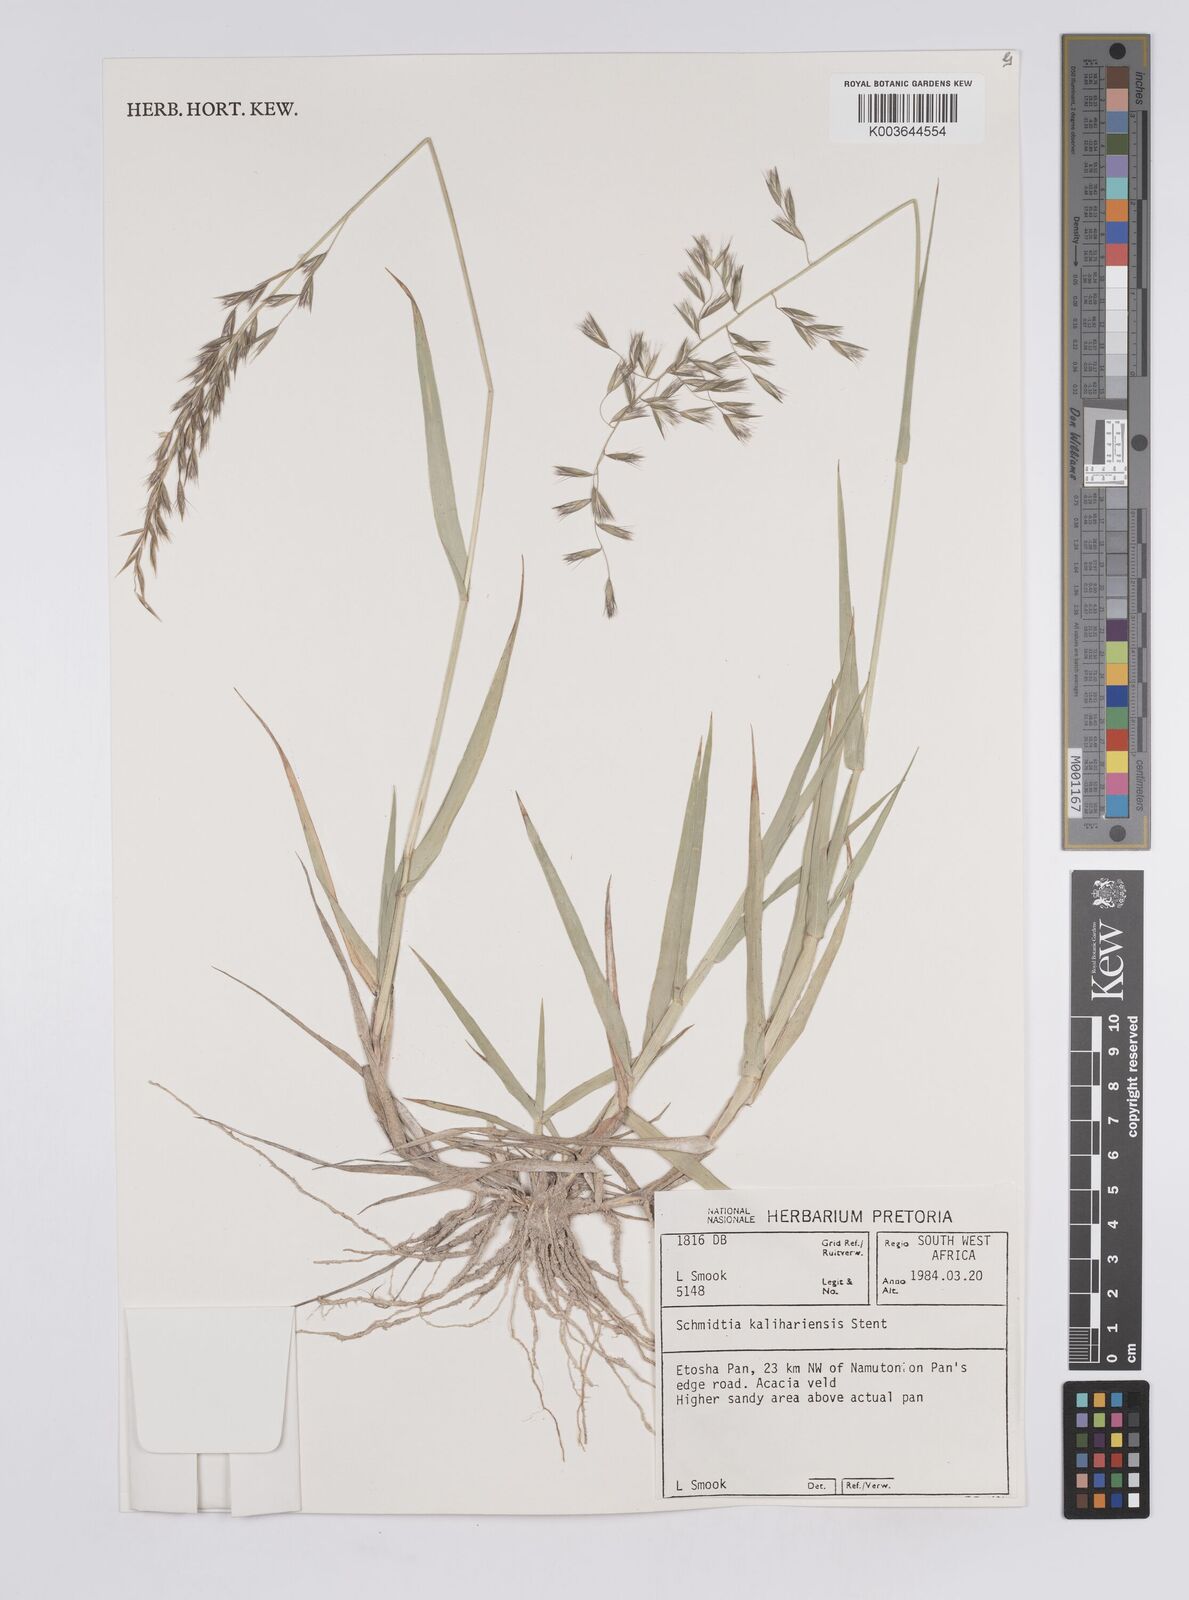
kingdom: Plantae
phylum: Tracheophyta
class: Liliopsida
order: Poales
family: Poaceae
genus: Schmidtia
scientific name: Schmidtia kalahariensis
